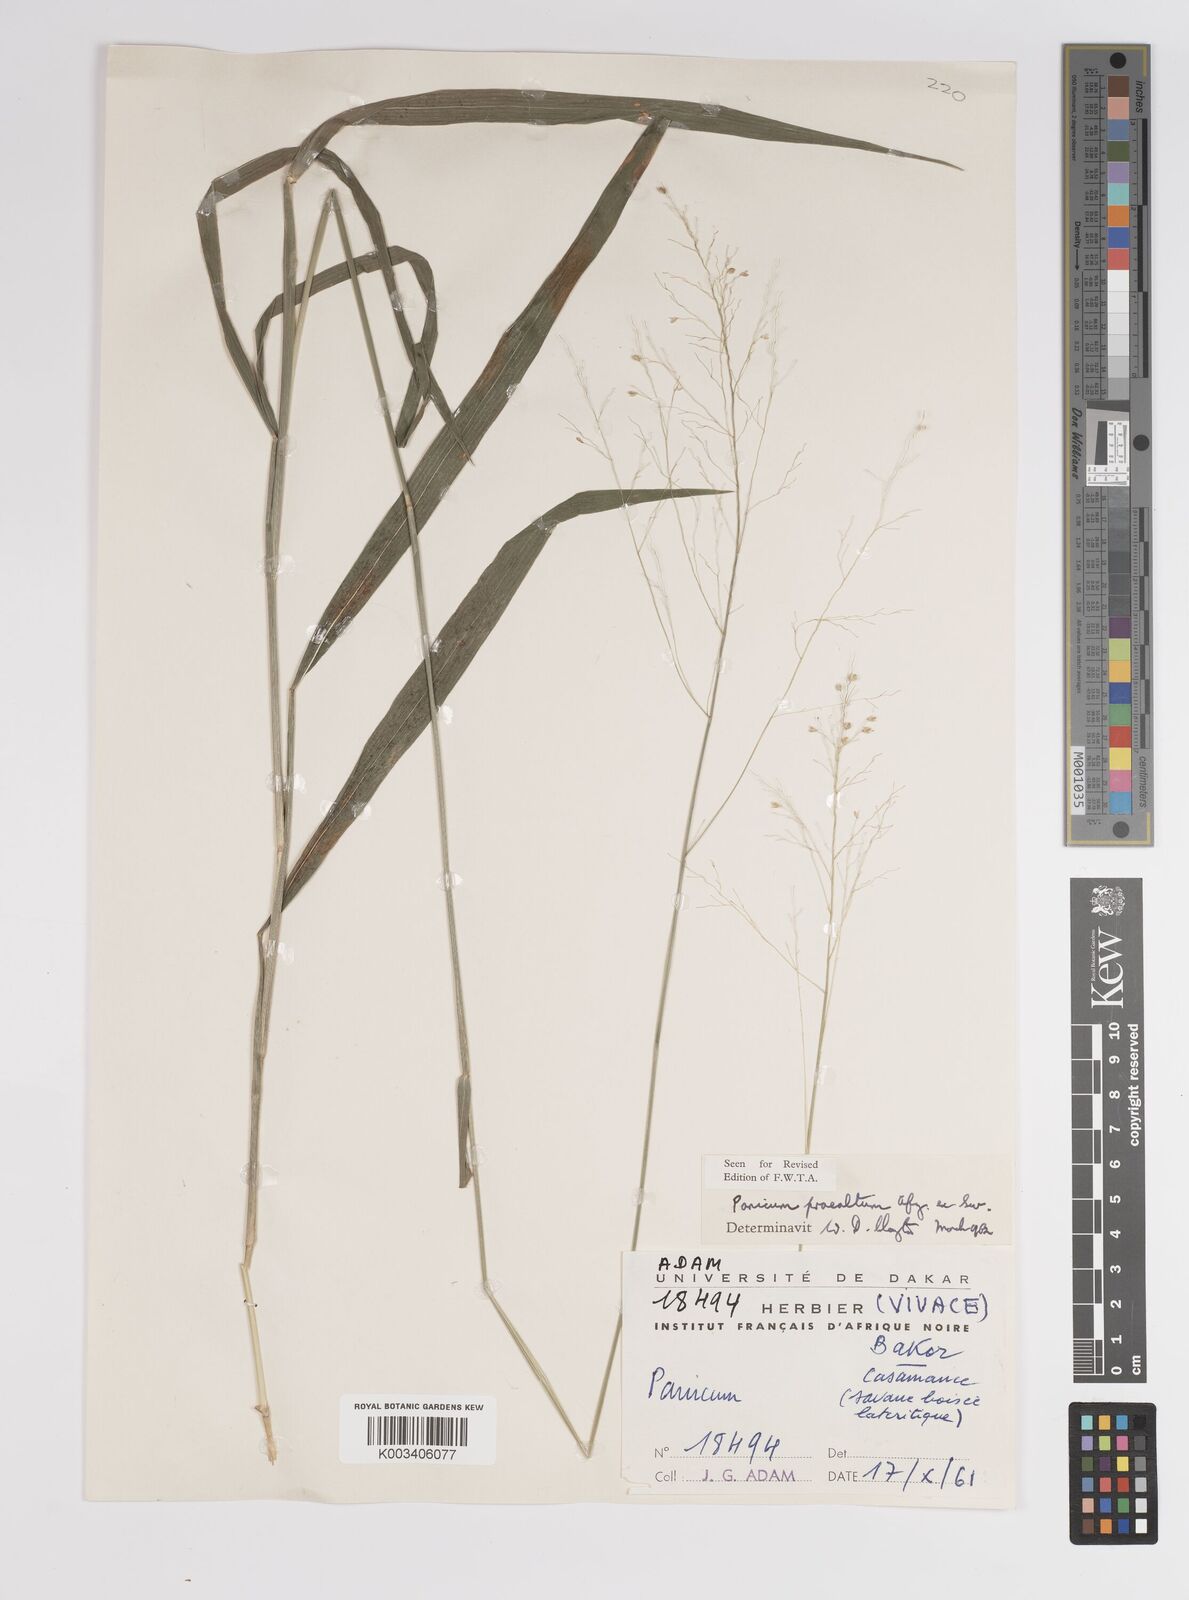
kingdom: Plantae
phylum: Tracheophyta
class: Liliopsida
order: Poales
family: Poaceae
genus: Trichanthecium
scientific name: Trichanthecium praealtum
